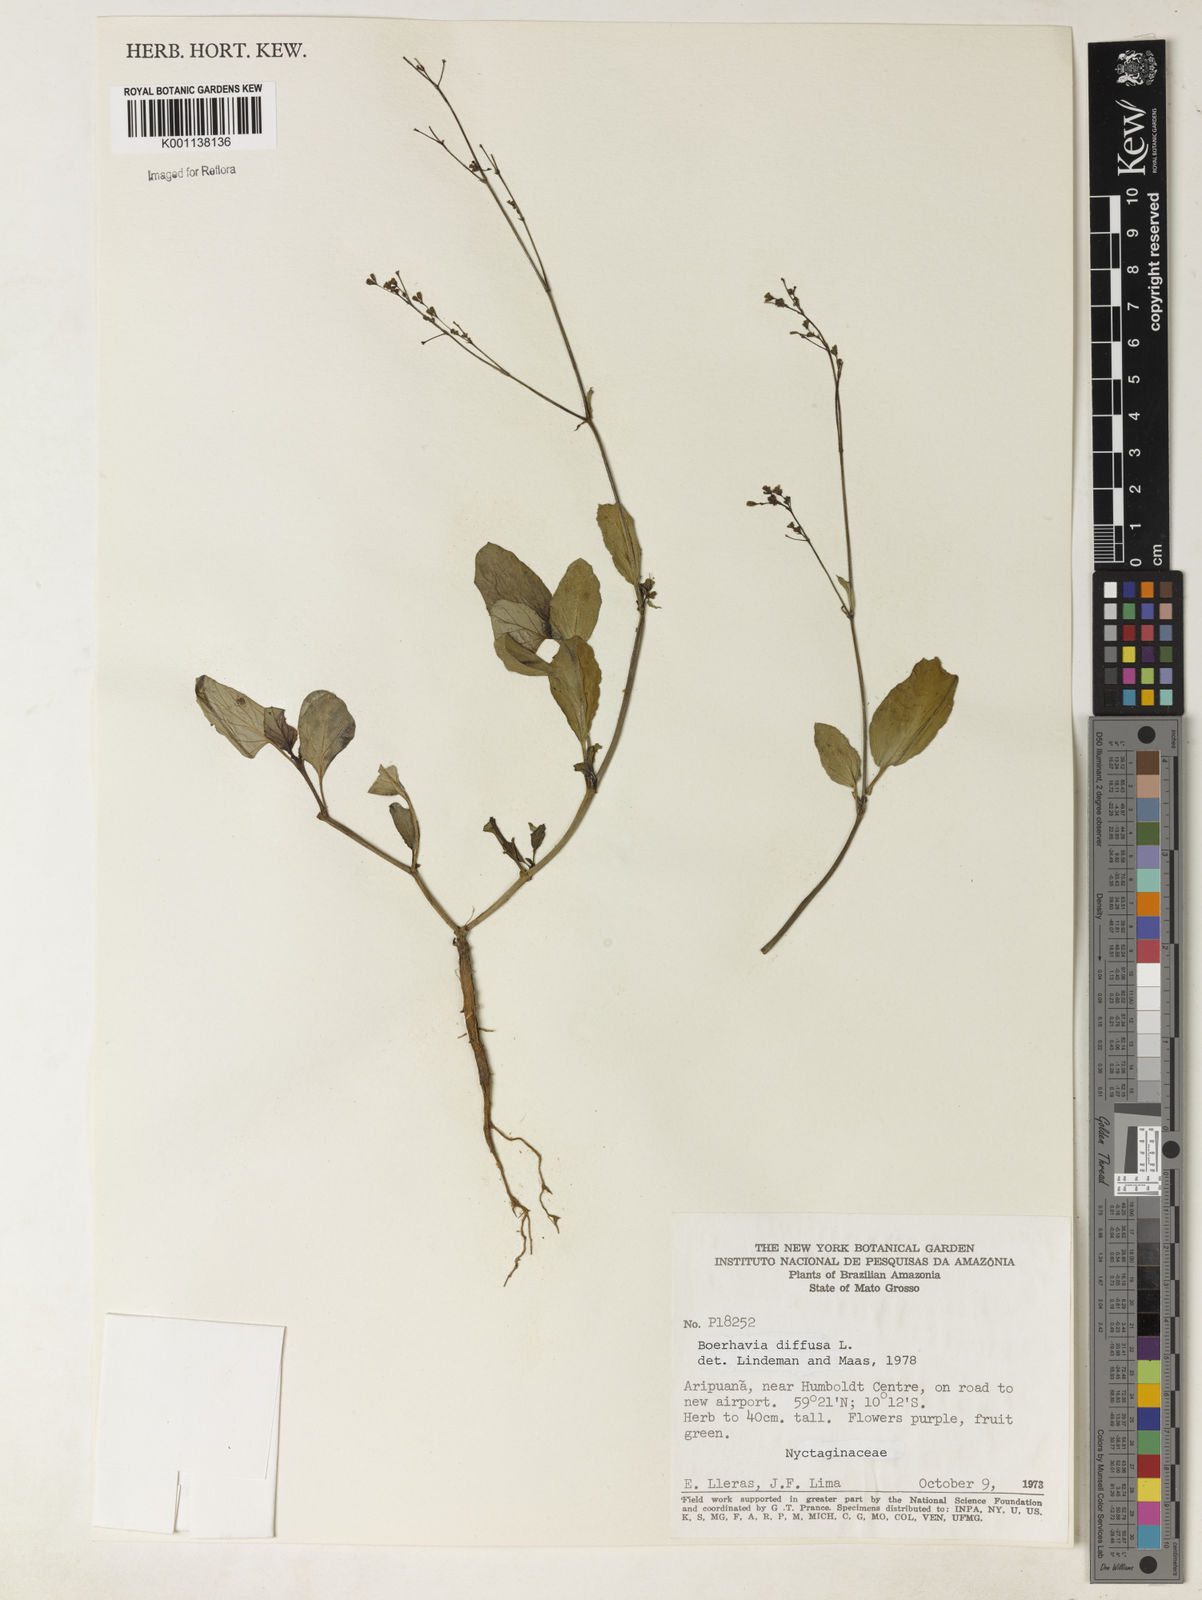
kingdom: Plantae
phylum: Tracheophyta
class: Magnoliopsida
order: Caryophyllales
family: Nyctaginaceae
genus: Boerhavia
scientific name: Boerhavia diffusa
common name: Red spiderling
